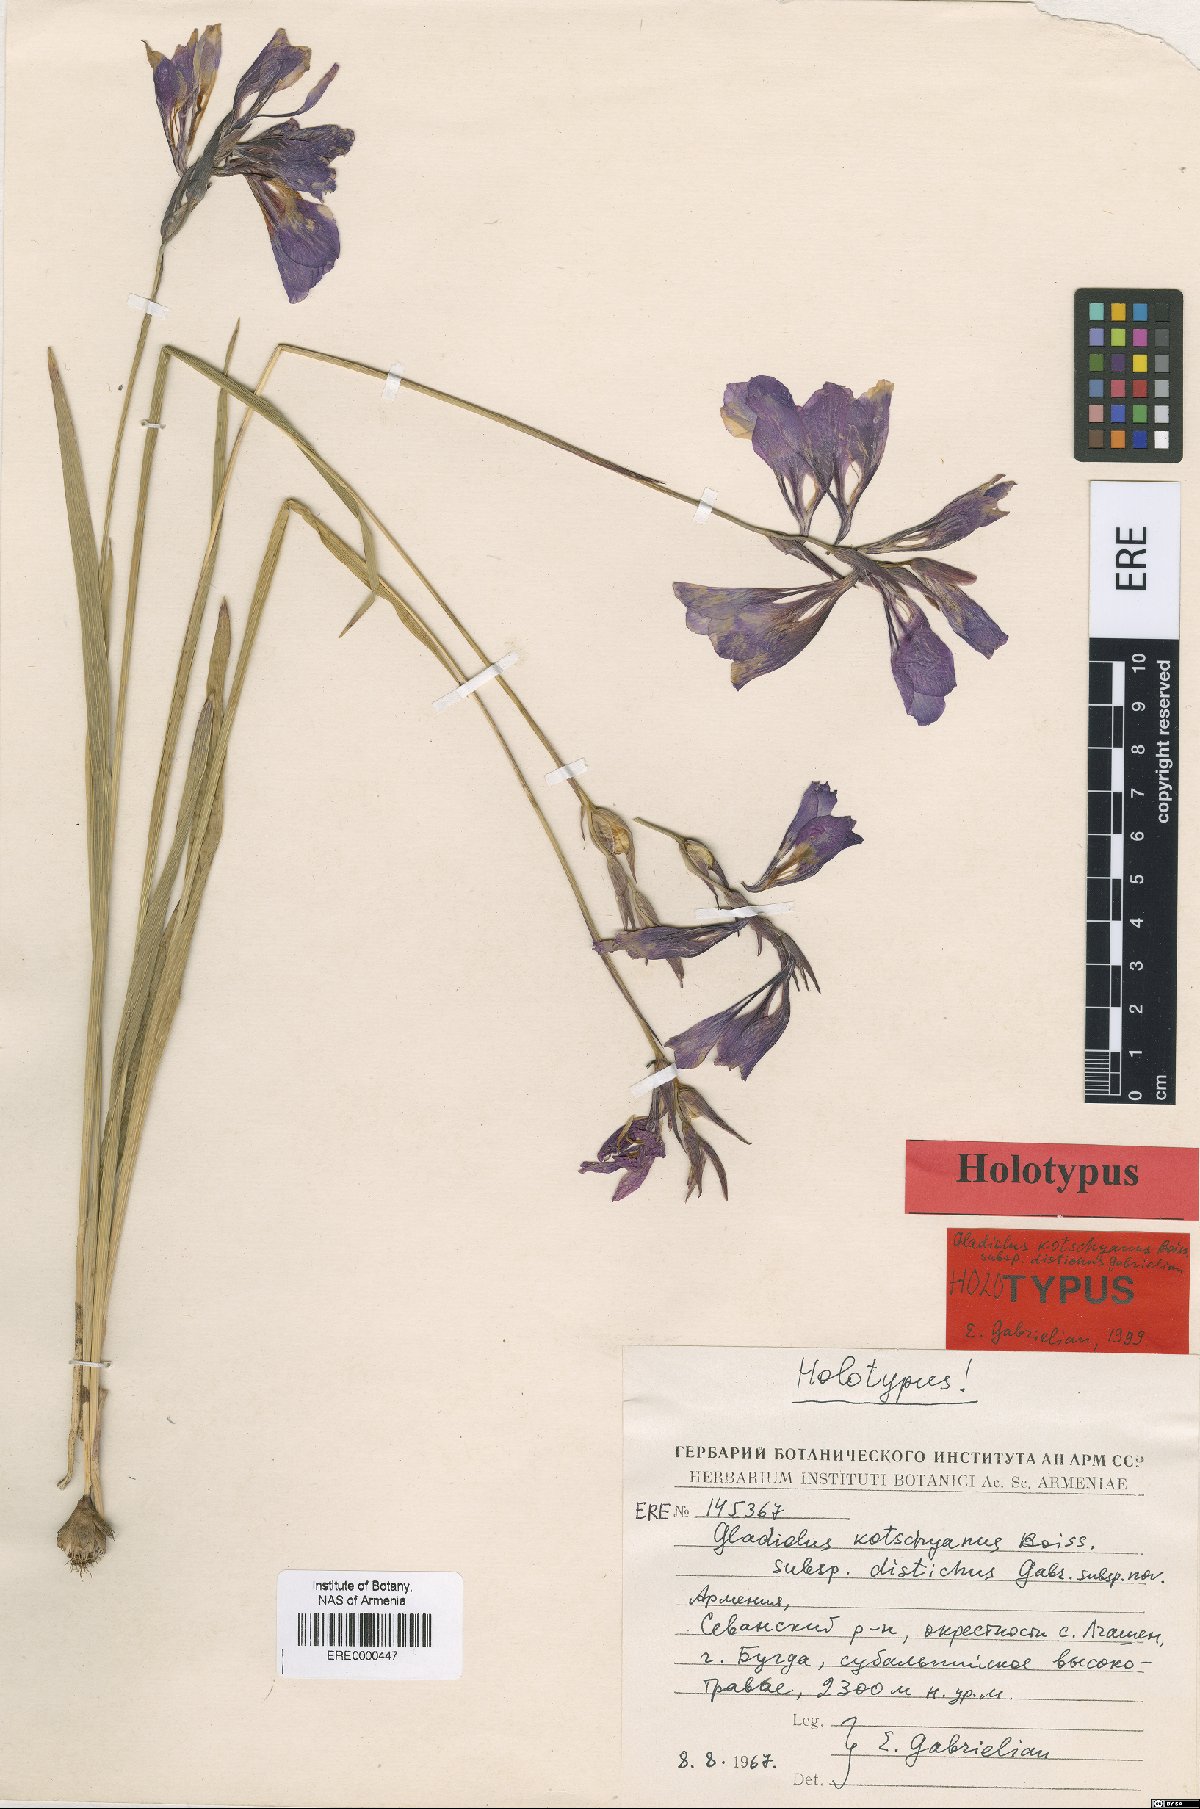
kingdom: Plantae
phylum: Tracheophyta
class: Liliopsida
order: Asparagales
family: Iridaceae
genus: Gladiolus
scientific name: Gladiolus kotschyanus
